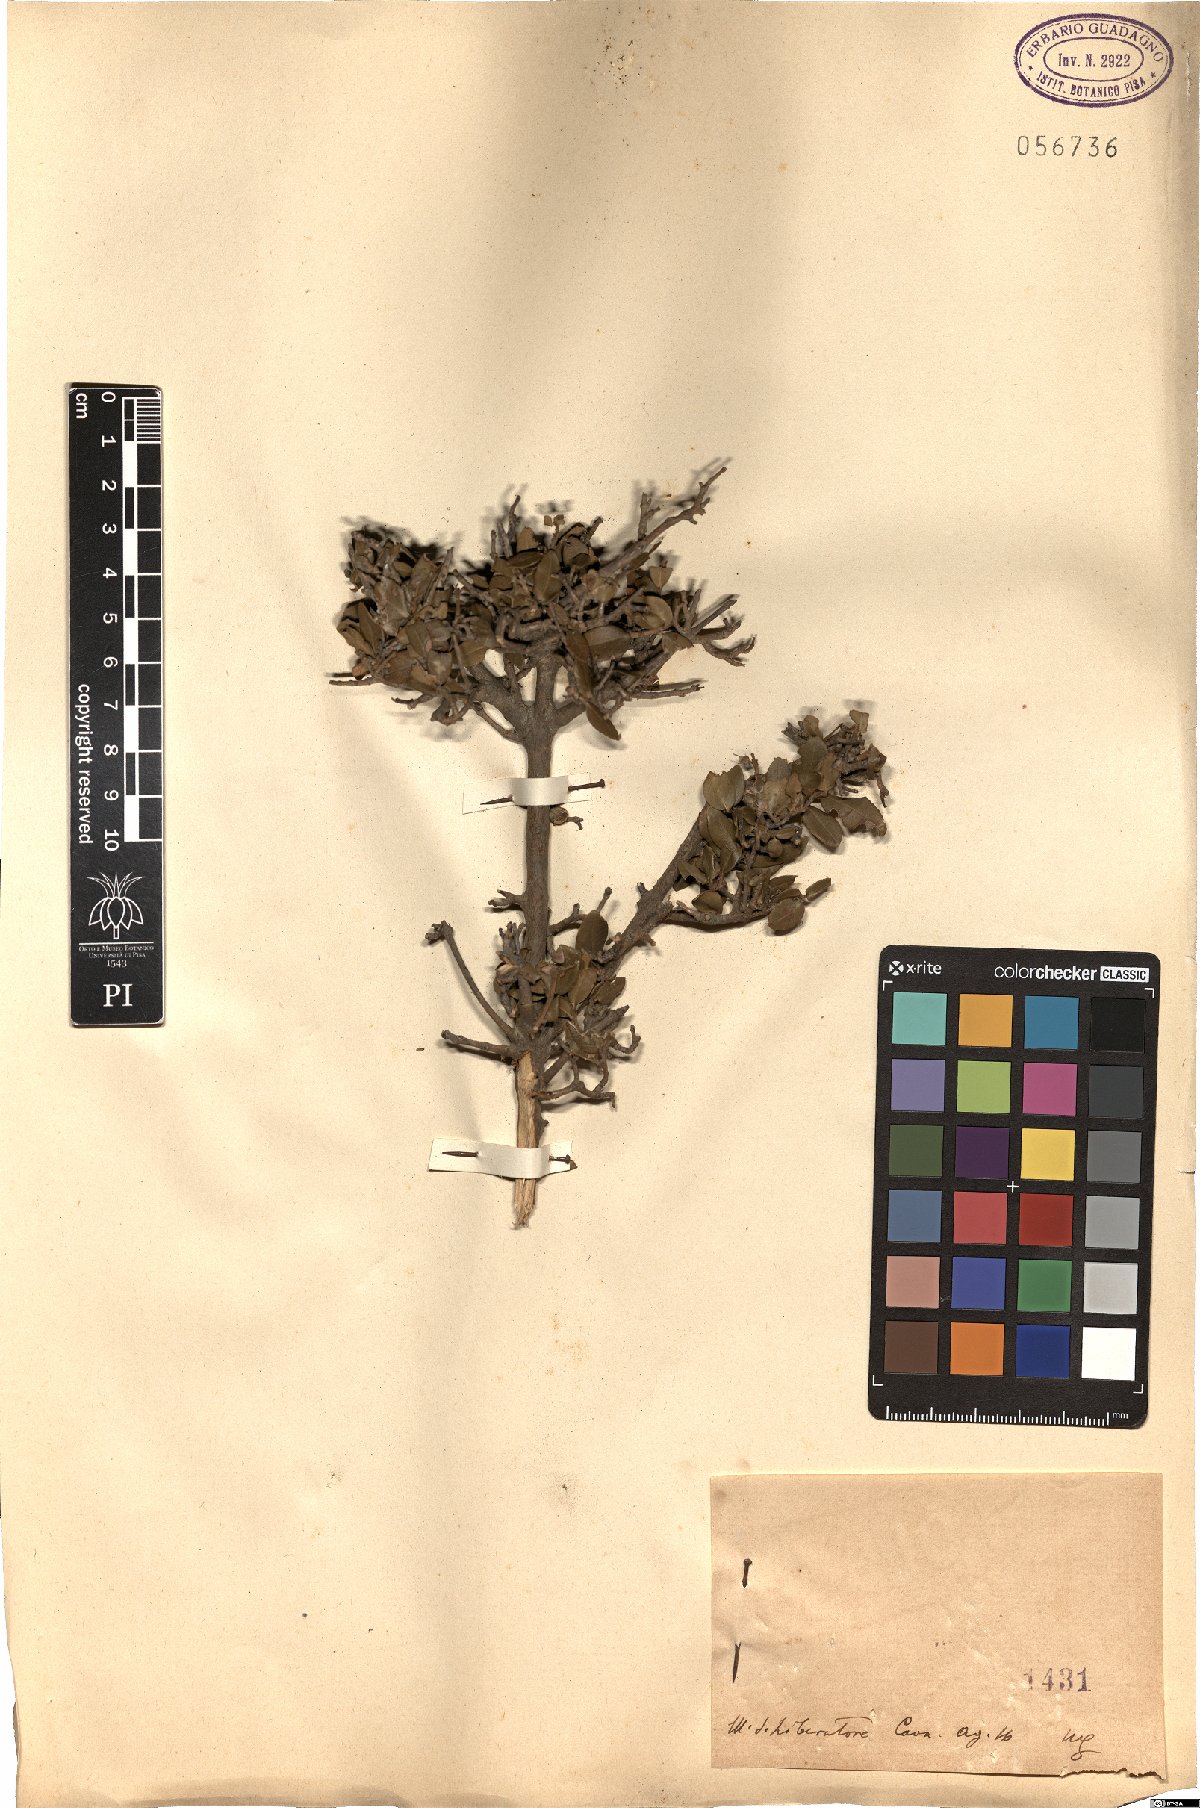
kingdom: Plantae
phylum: Tracheophyta
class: Magnoliopsida
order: Lamiales
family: Oleaceae
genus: Phillyrea
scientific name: Phillyrea
